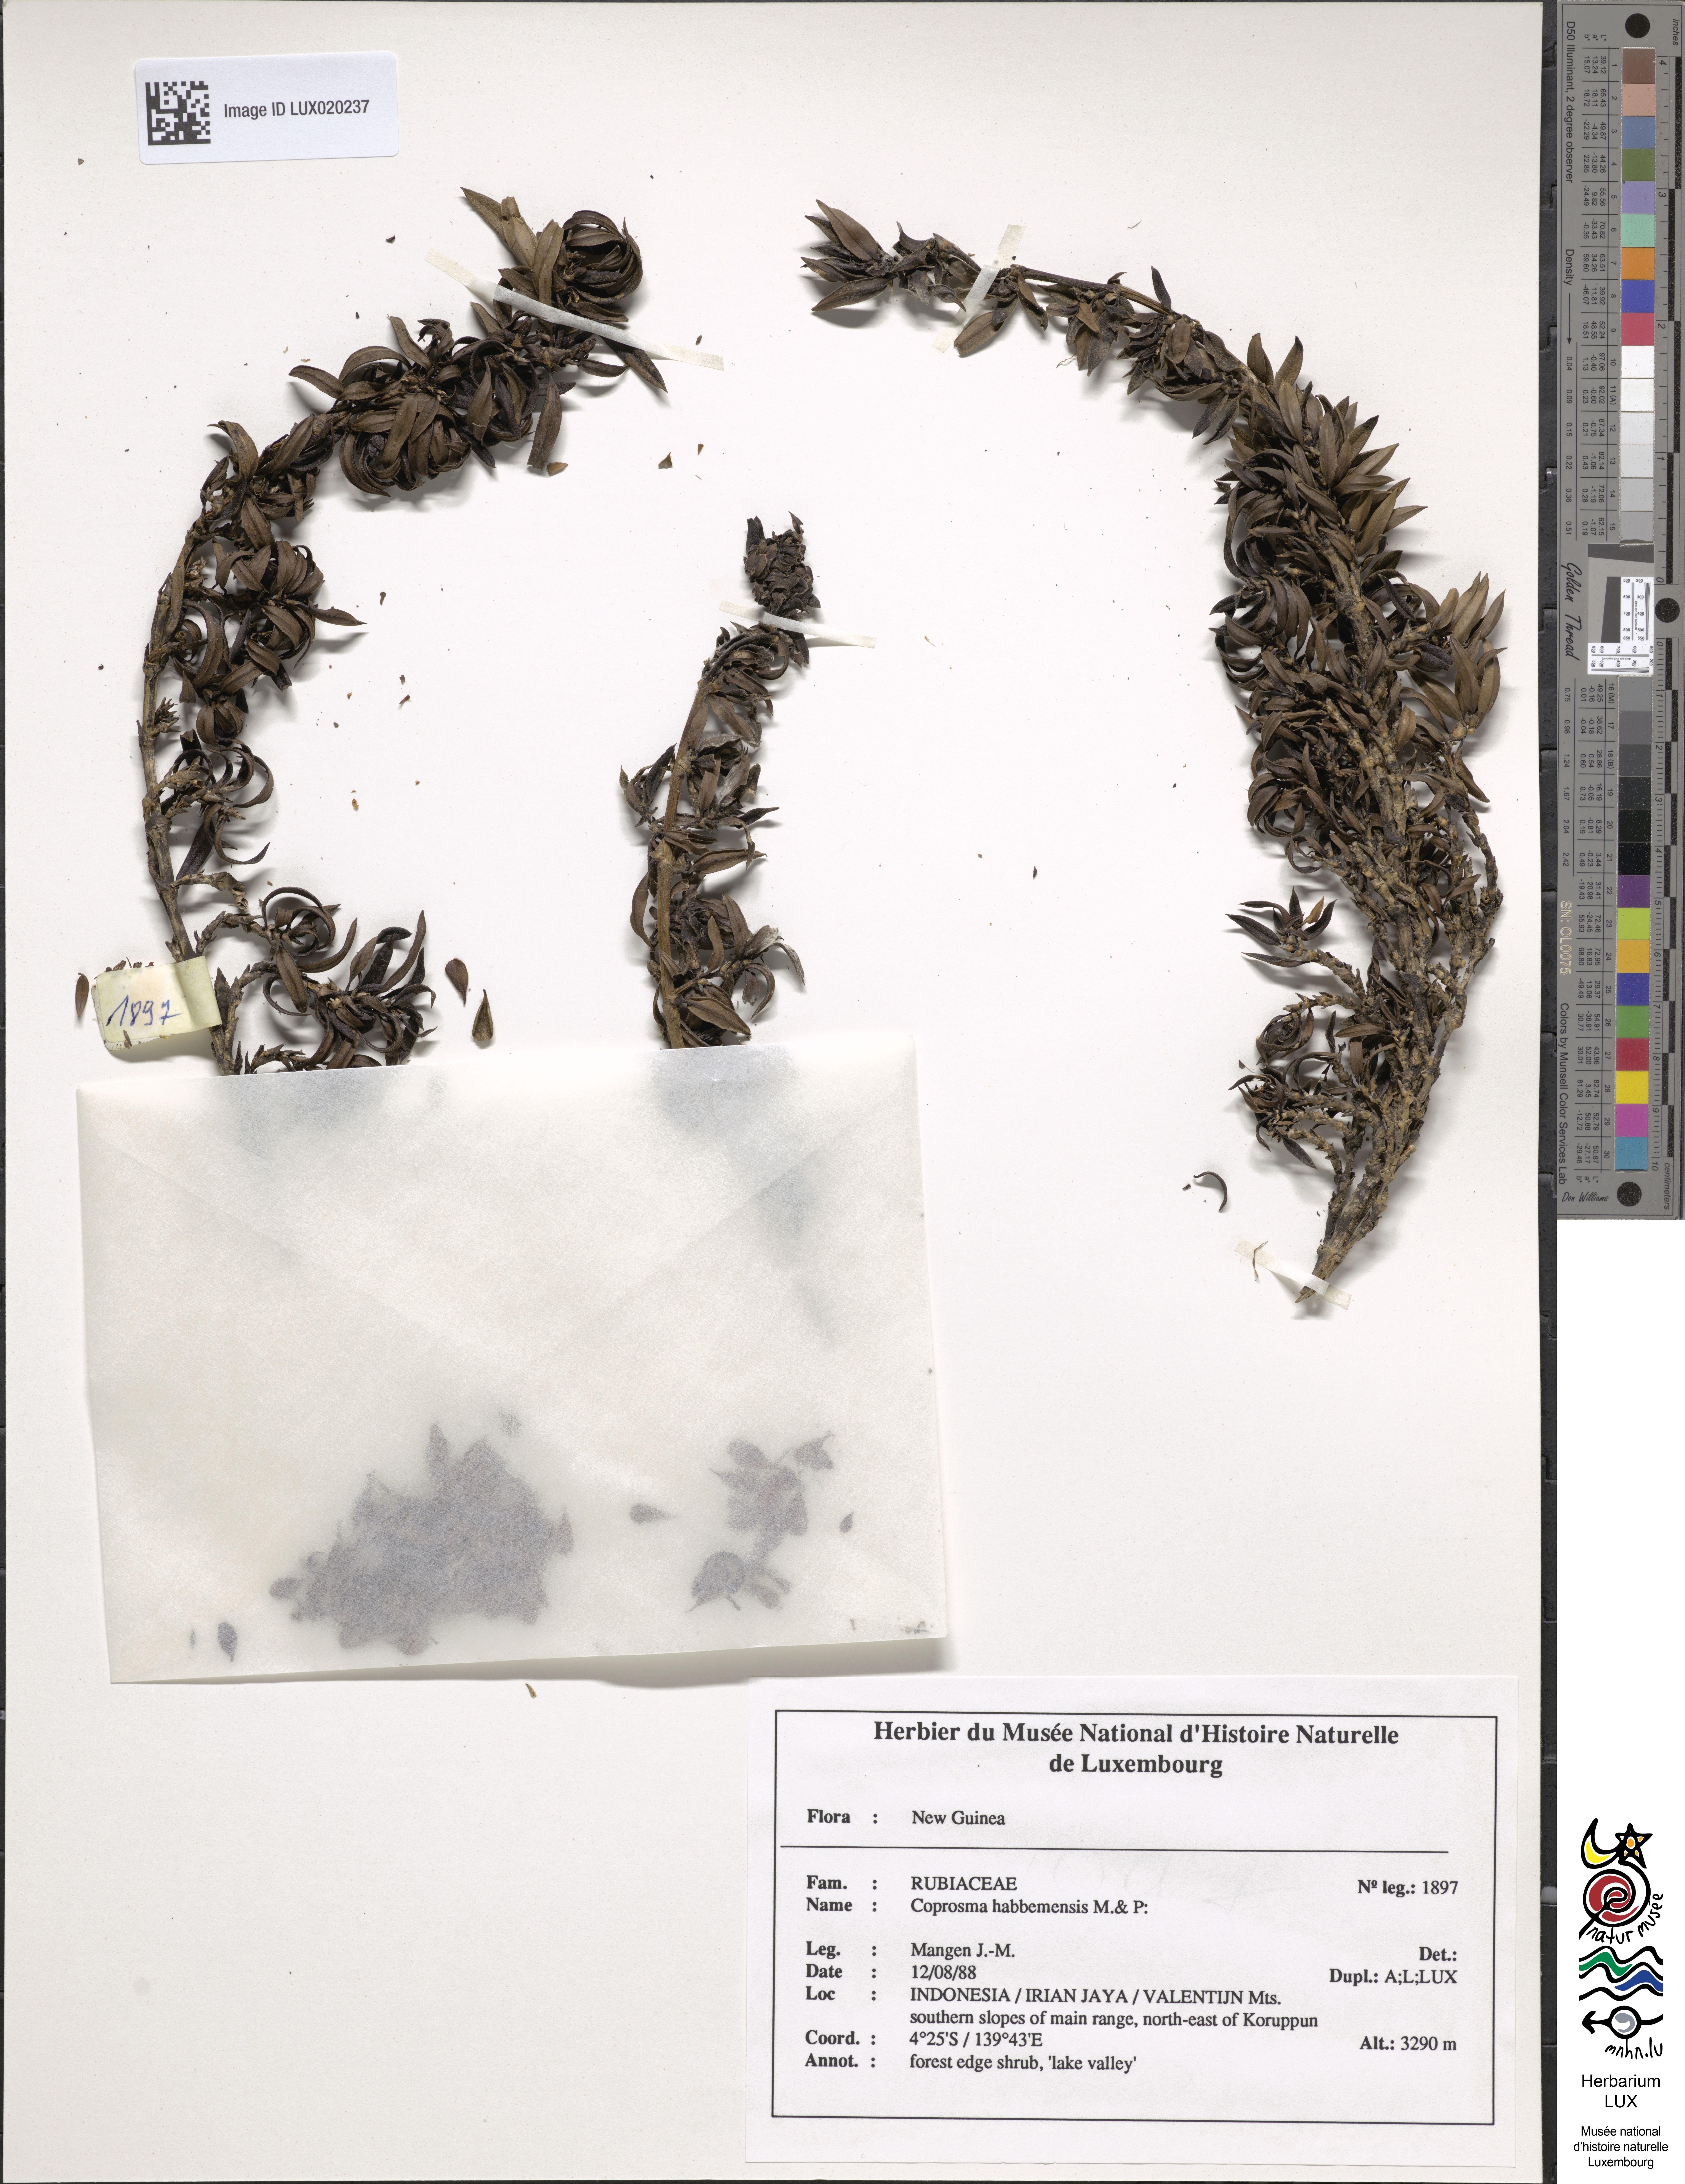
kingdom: Plantae
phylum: Tracheophyta
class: Magnoliopsida
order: Gentianales
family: Rubiaceae
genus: Coprosma
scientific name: Coprosma wollastonii
